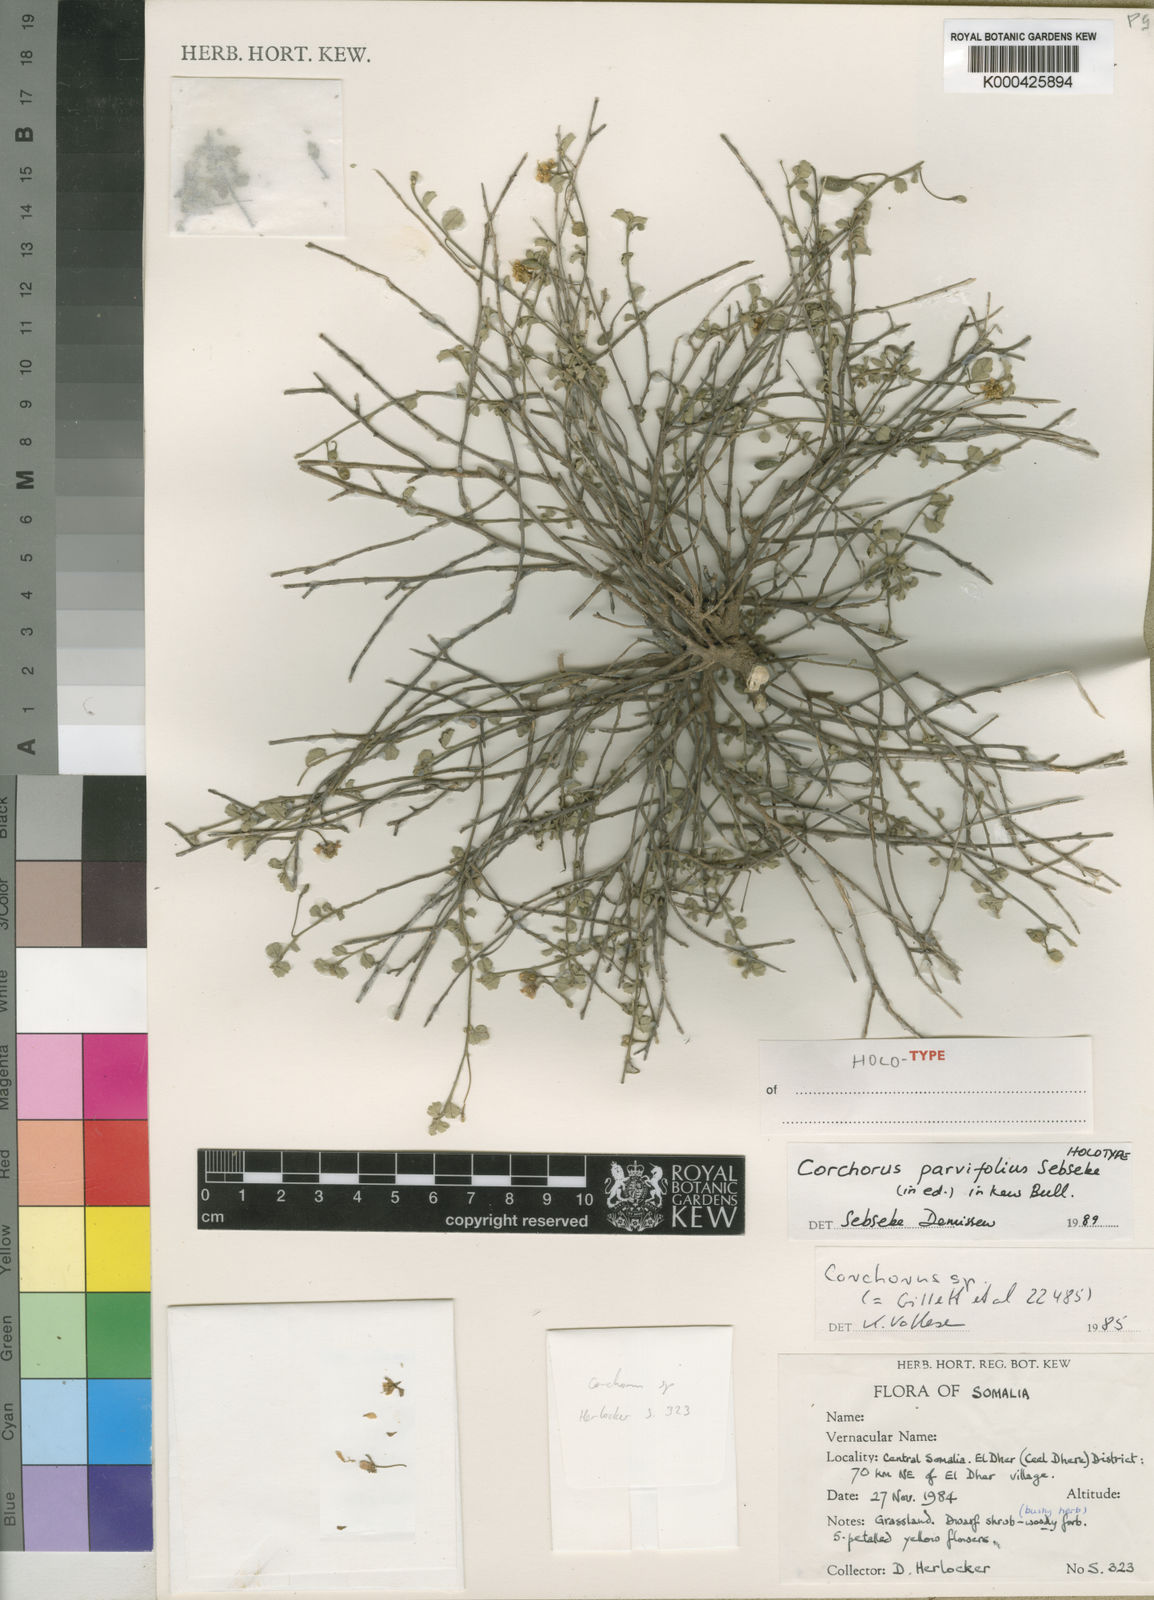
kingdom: Plantae
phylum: Tracheophyta
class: Magnoliopsida
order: Malvales
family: Malvaceae
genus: Corchorus
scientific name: Corchorus parvifolius
